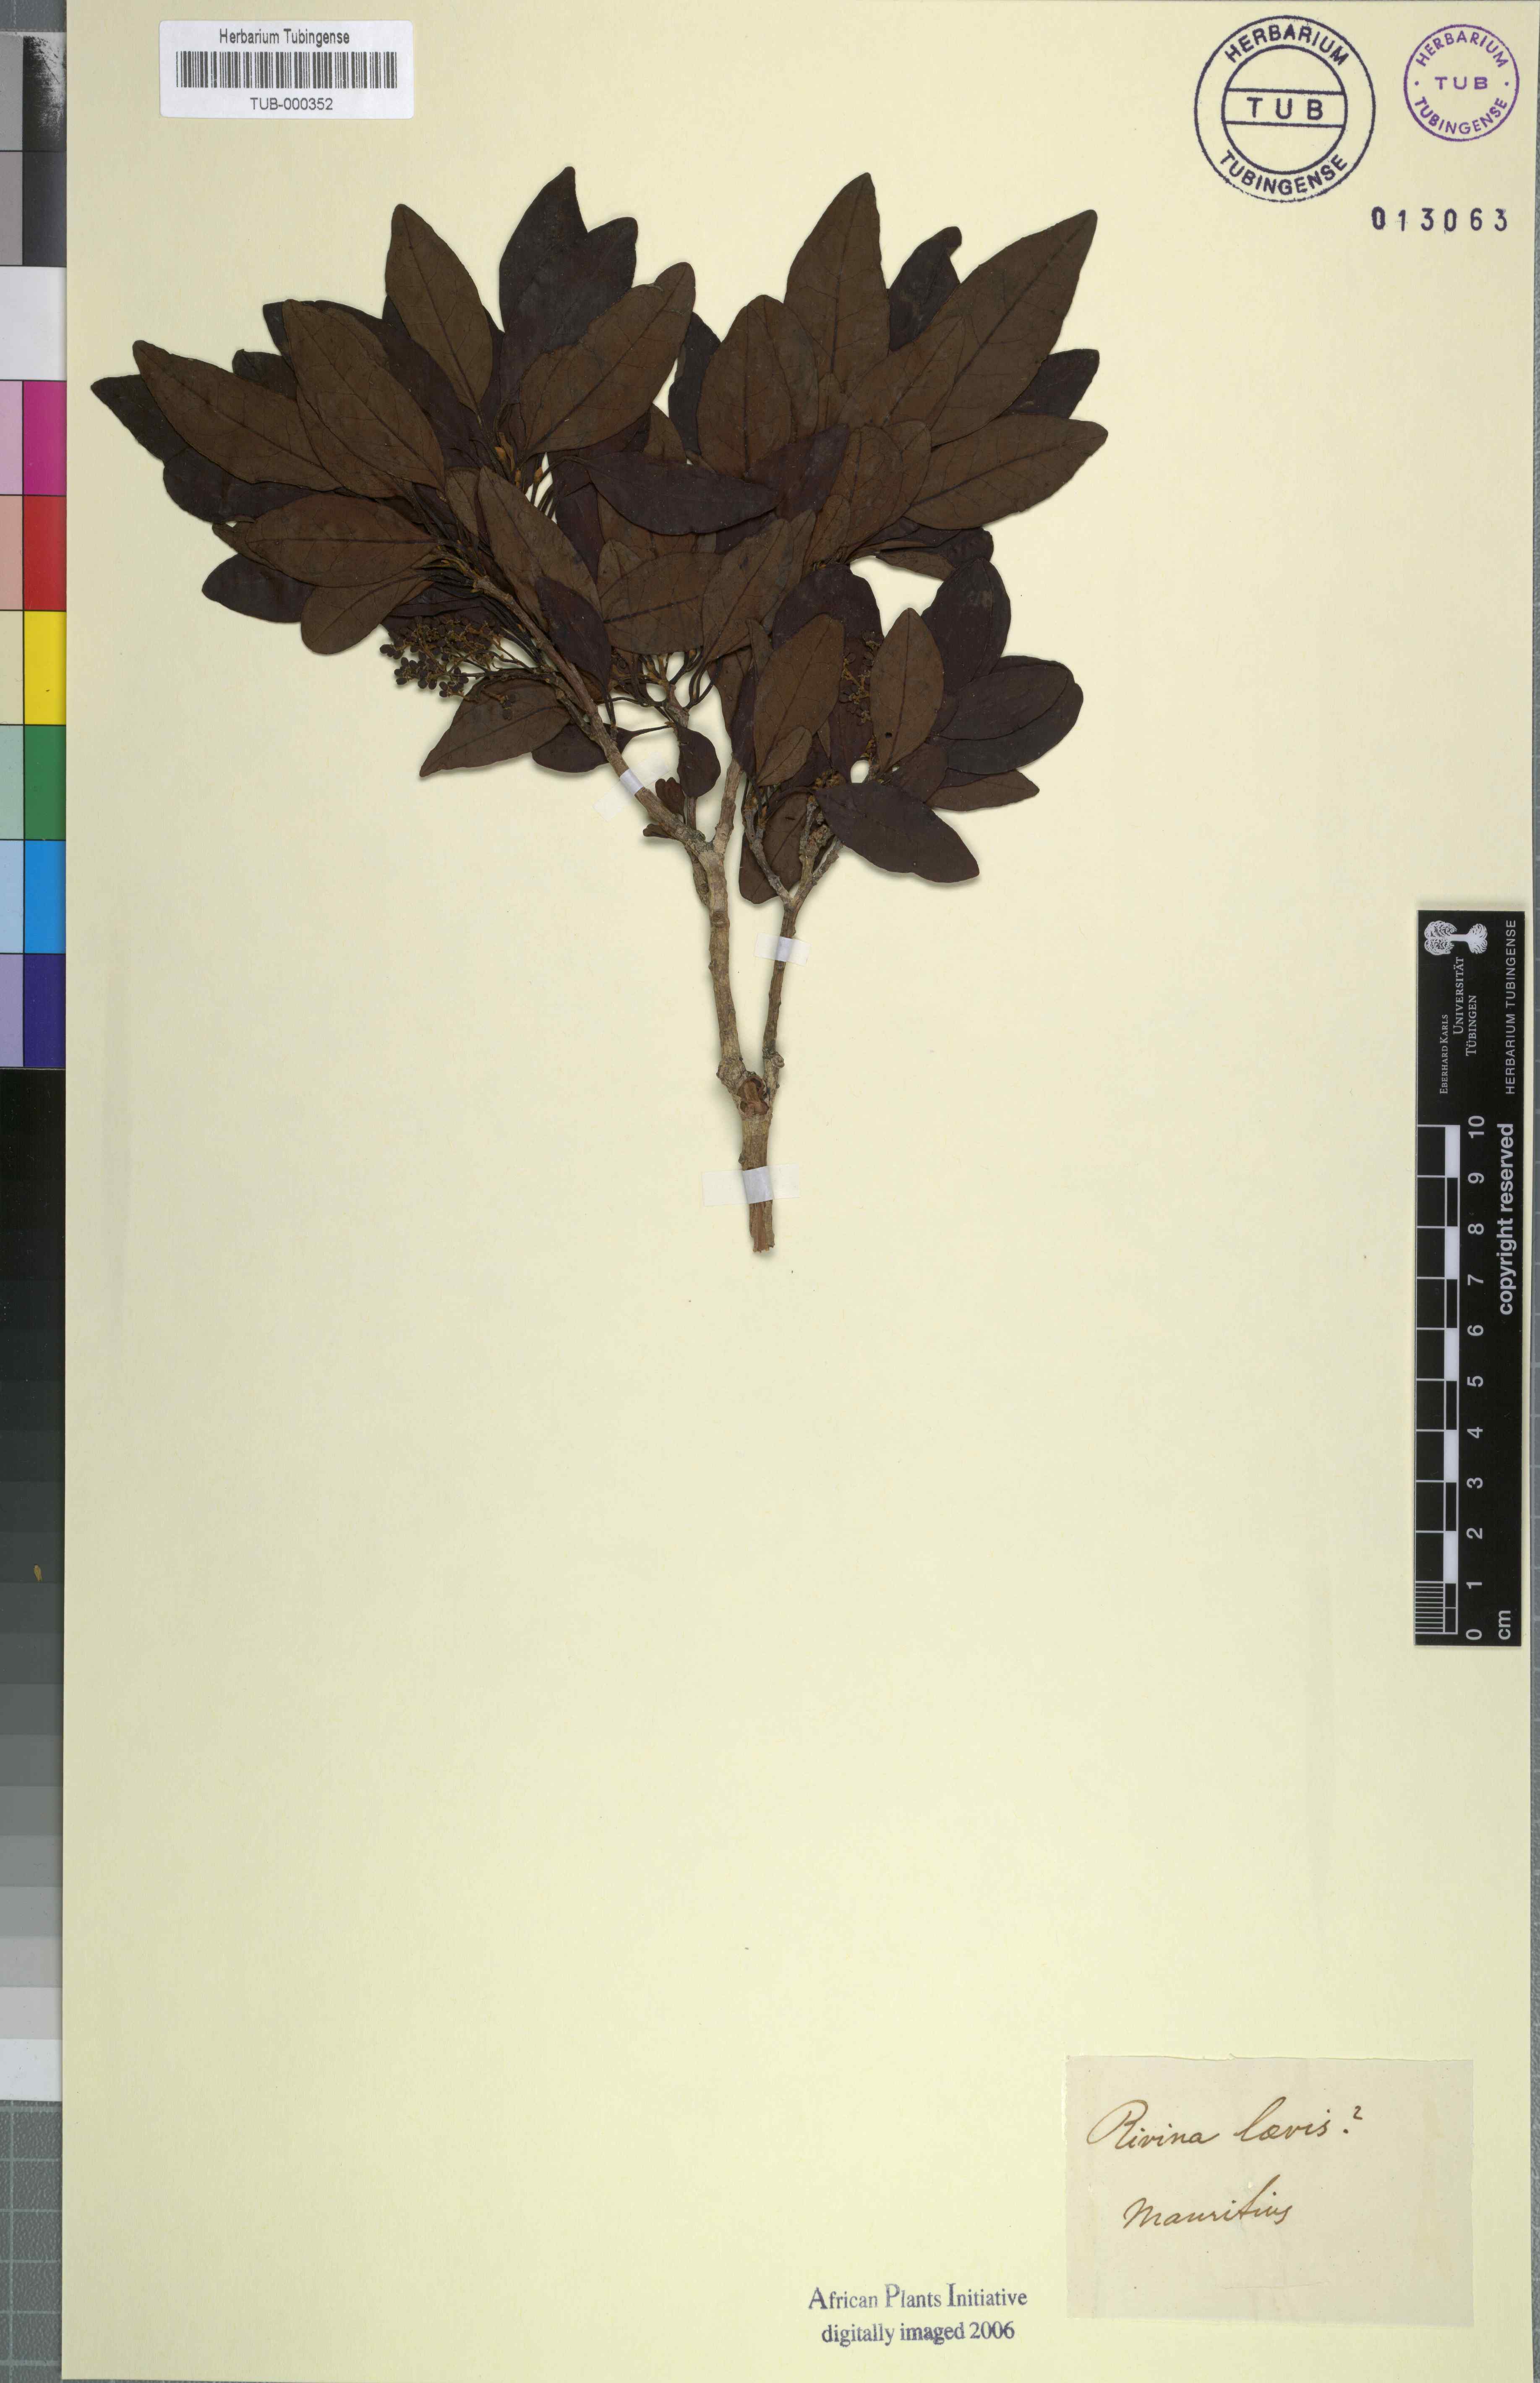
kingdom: Plantae
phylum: Tracheophyta
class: Magnoliopsida
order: Caryophyllales
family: Phytolaccaceae
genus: Rivina
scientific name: Rivina humilis
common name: Rougeplant
